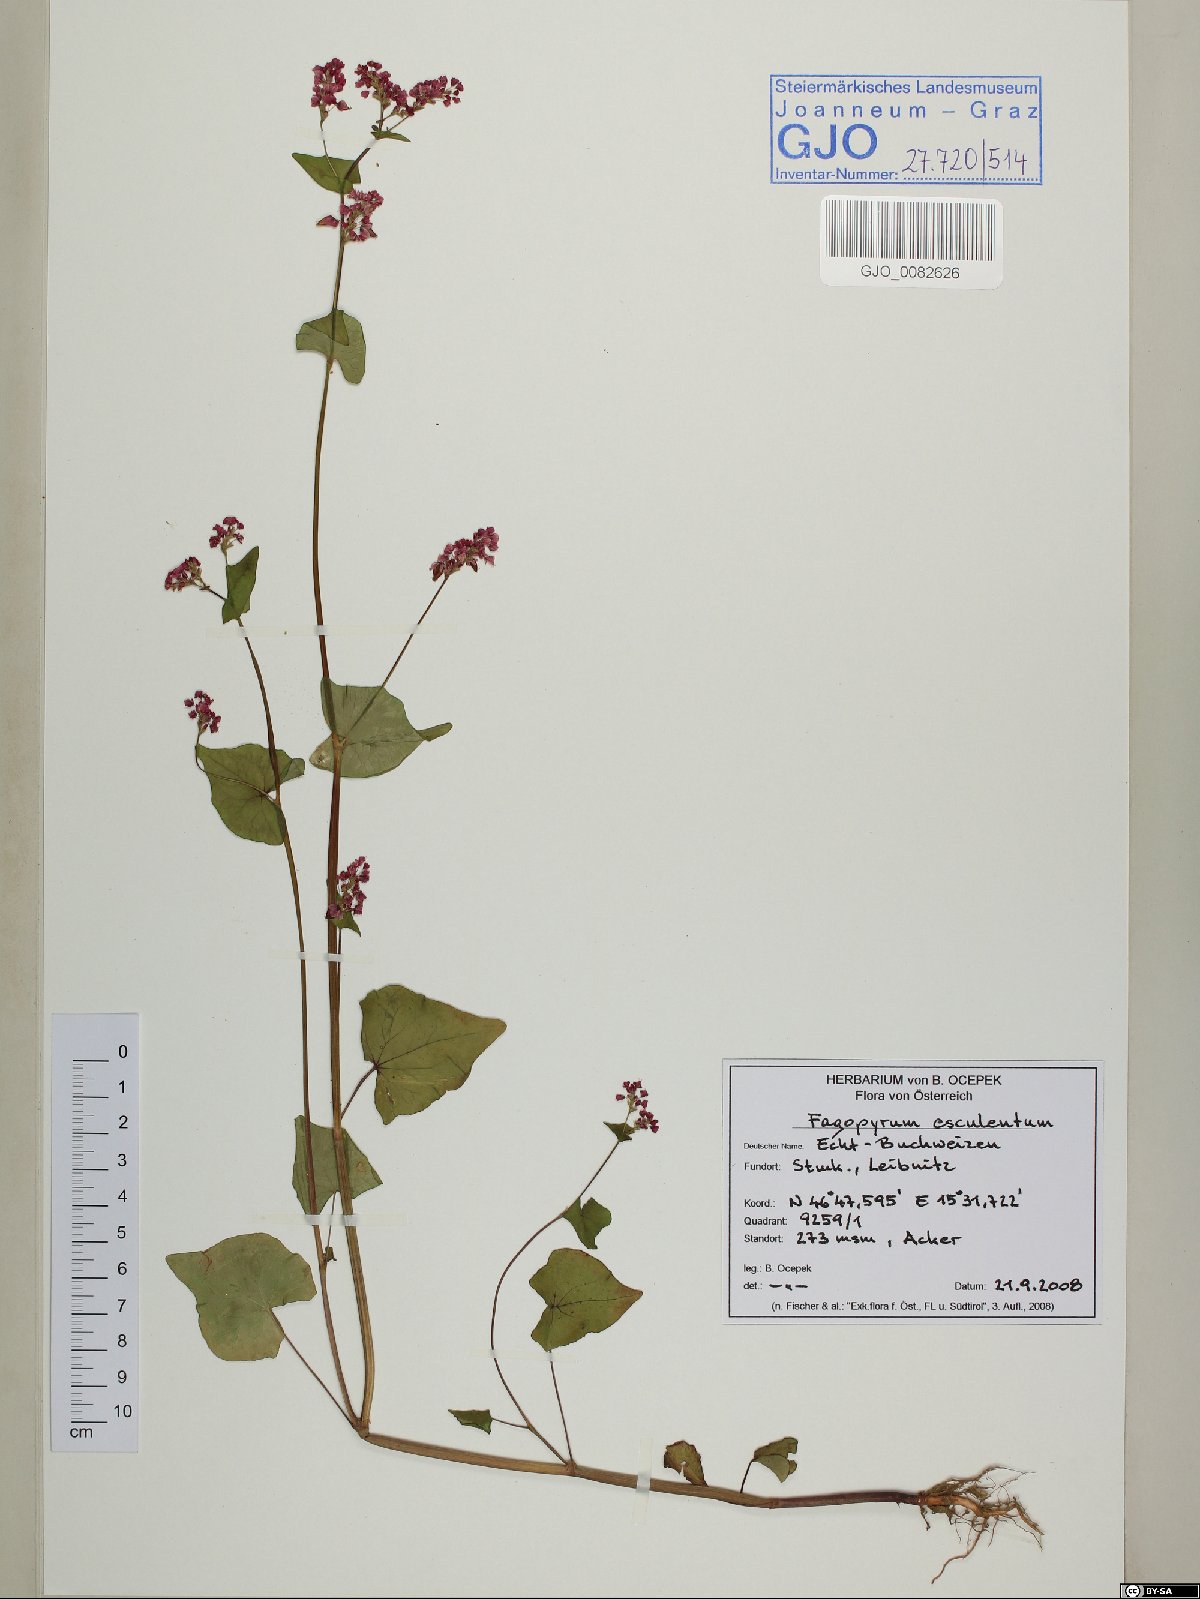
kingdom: Plantae
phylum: Tracheophyta
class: Magnoliopsida
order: Caryophyllales
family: Polygonaceae
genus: Fagopyrum
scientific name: Fagopyrum esculentum
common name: Buckwheat
